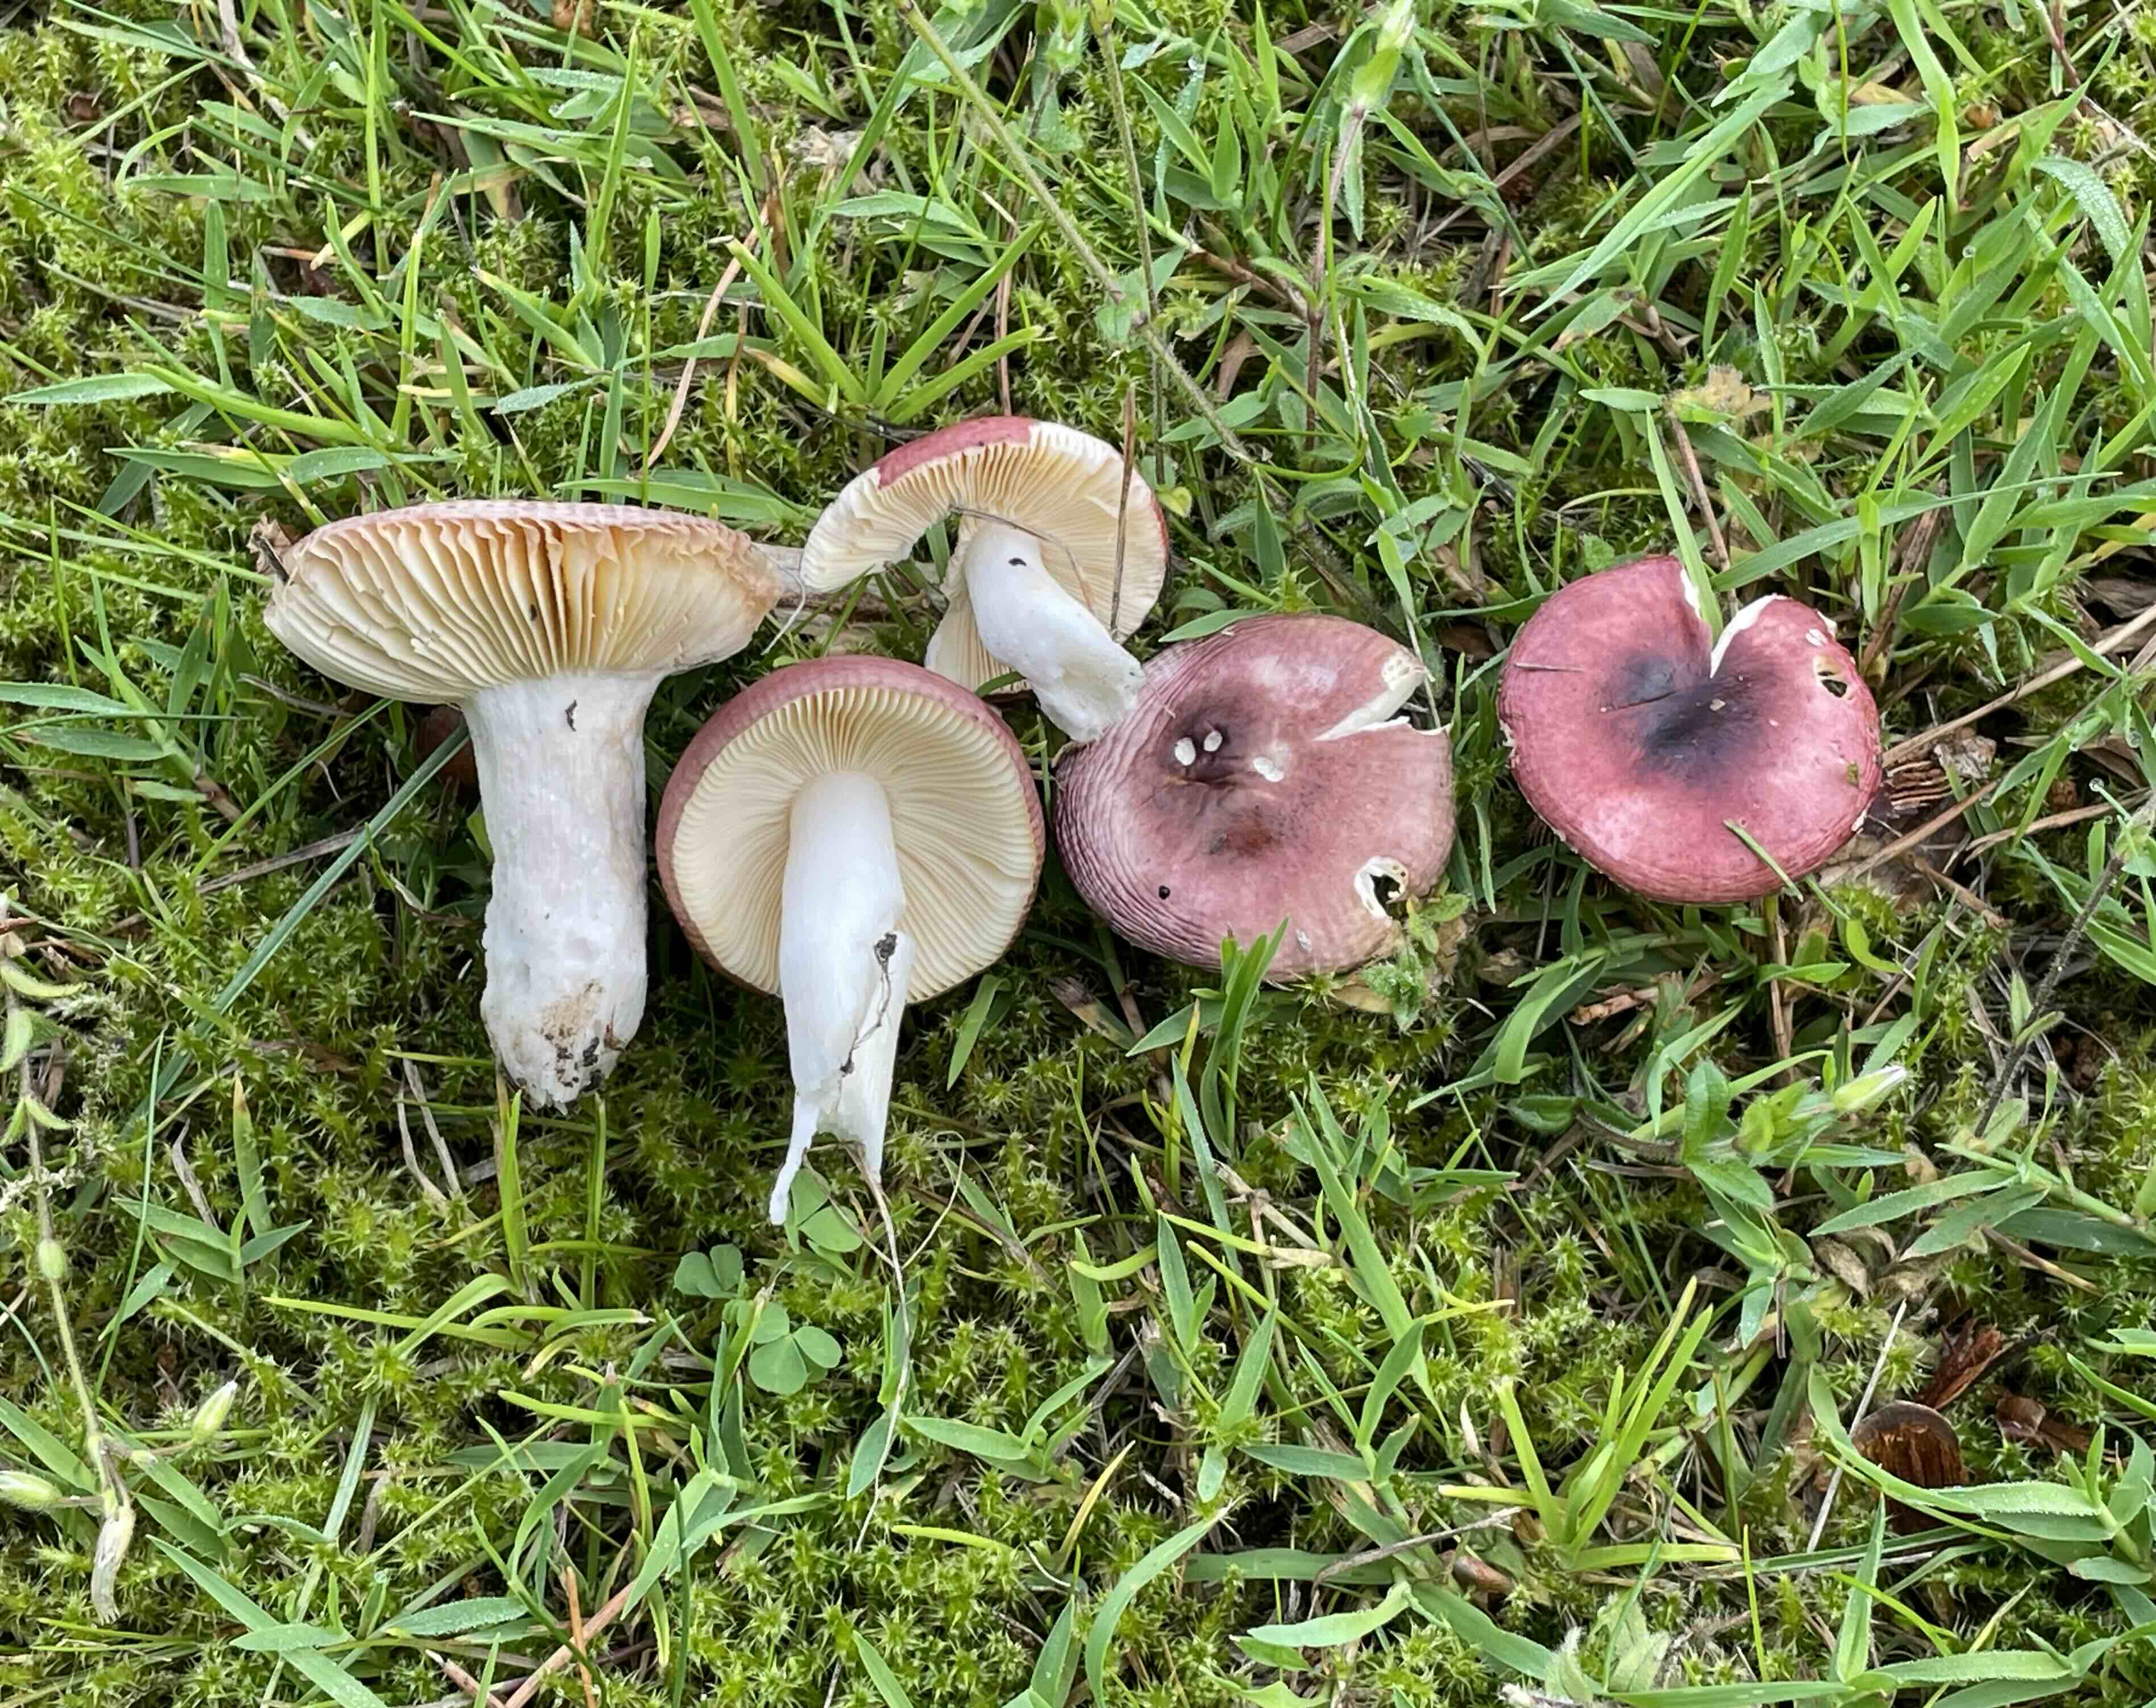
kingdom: Fungi
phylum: Basidiomycota
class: Agaricomycetes
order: Russulales
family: Russulaceae
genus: Russula
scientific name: Russula cessans
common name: fyrre-skørhat
